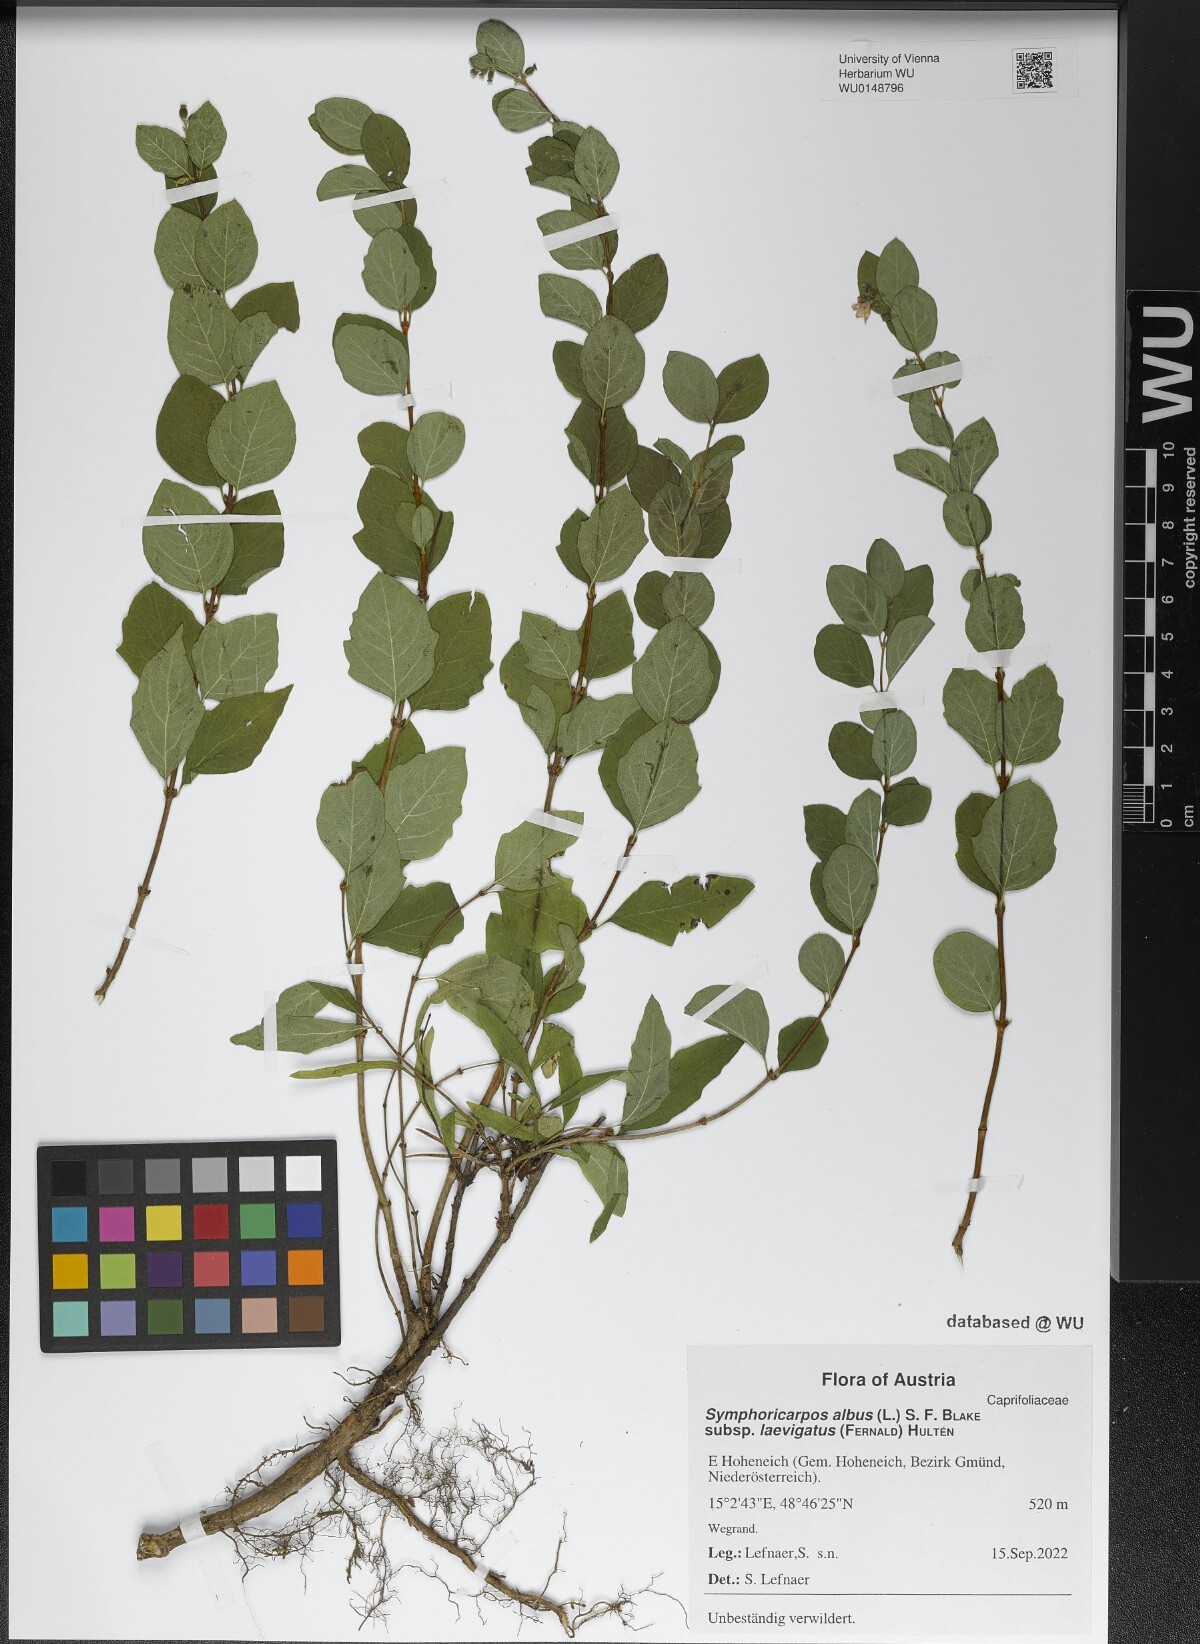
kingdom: Plantae
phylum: Tracheophyta
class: Magnoliopsida
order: Dipsacales
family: Caprifoliaceae
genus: Symphoricarpos
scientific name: Symphoricarpos albus
